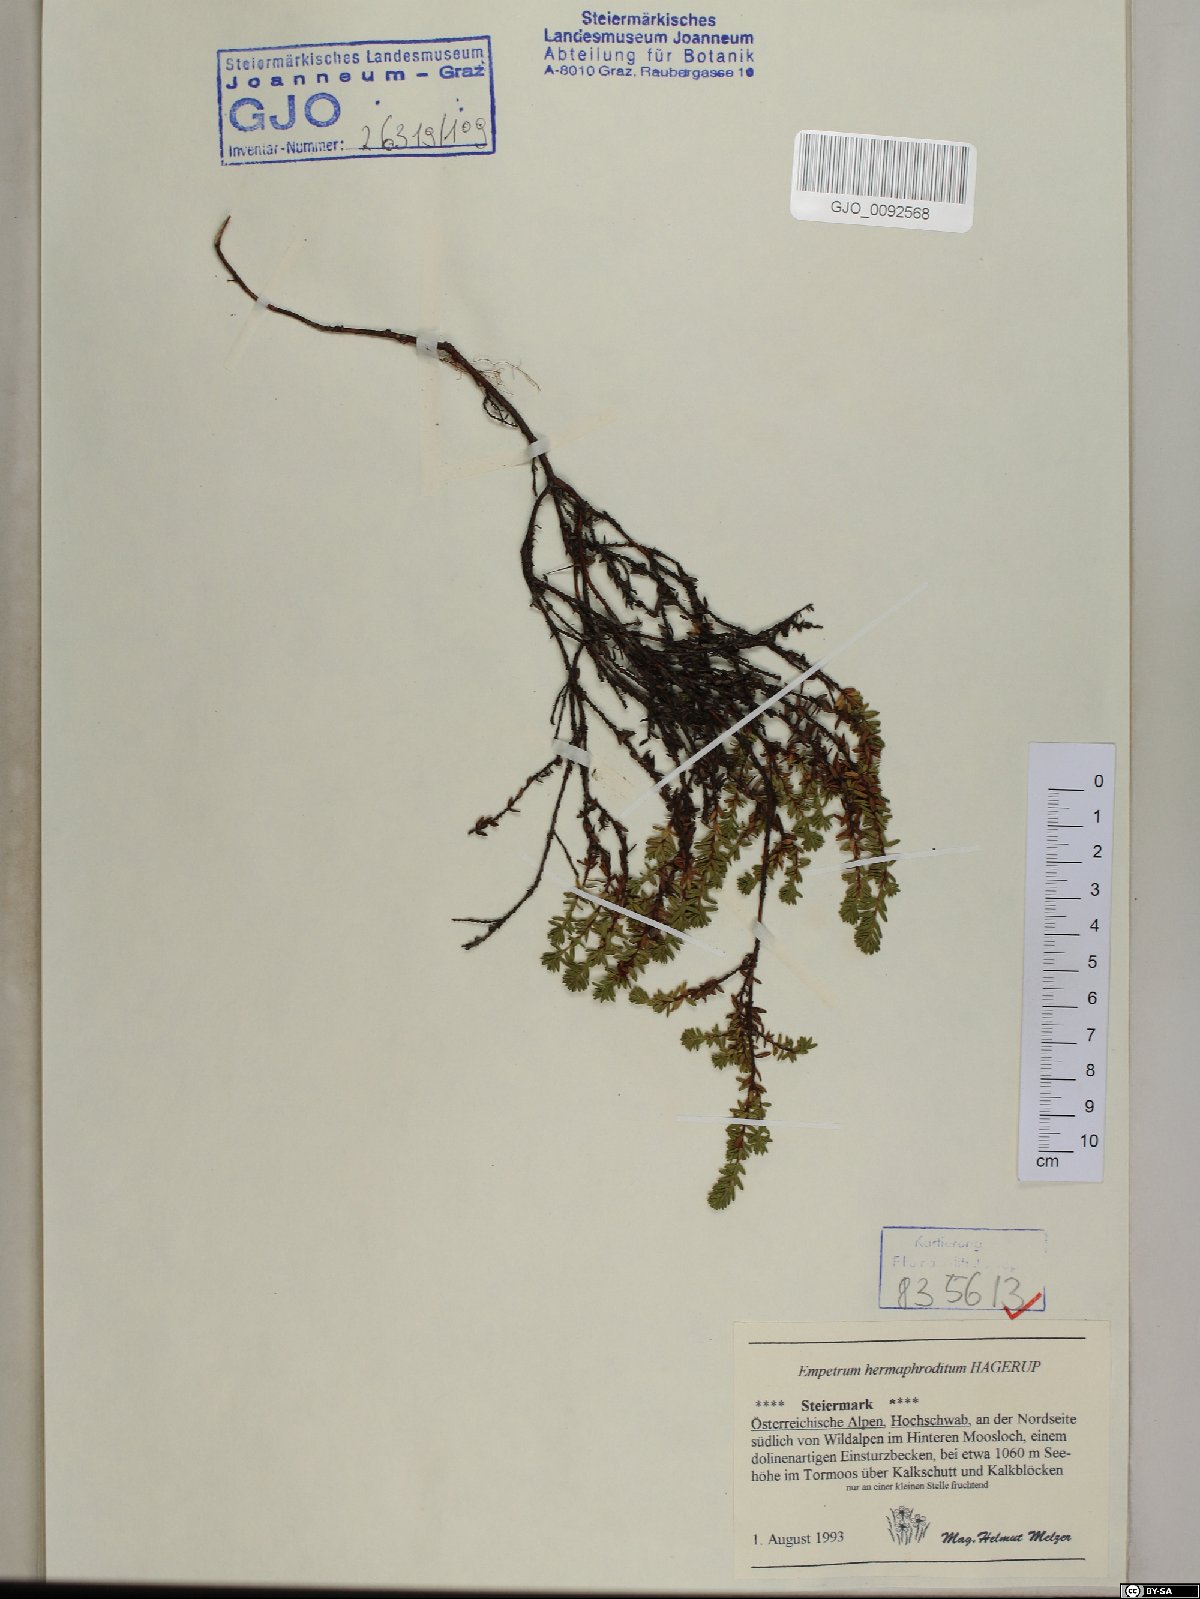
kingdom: Plantae
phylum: Tracheophyta
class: Magnoliopsida
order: Ericales
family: Ericaceae
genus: Empetrum
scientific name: Empetrum hermaphroditum
